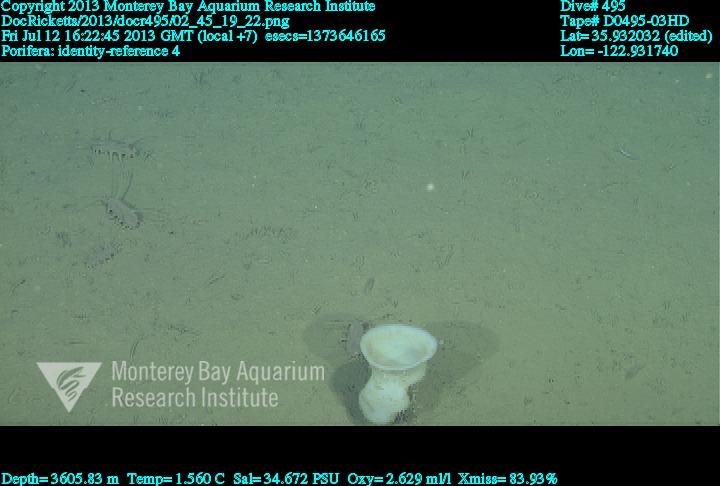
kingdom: Animalia
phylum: Porifera
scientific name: Porifera
